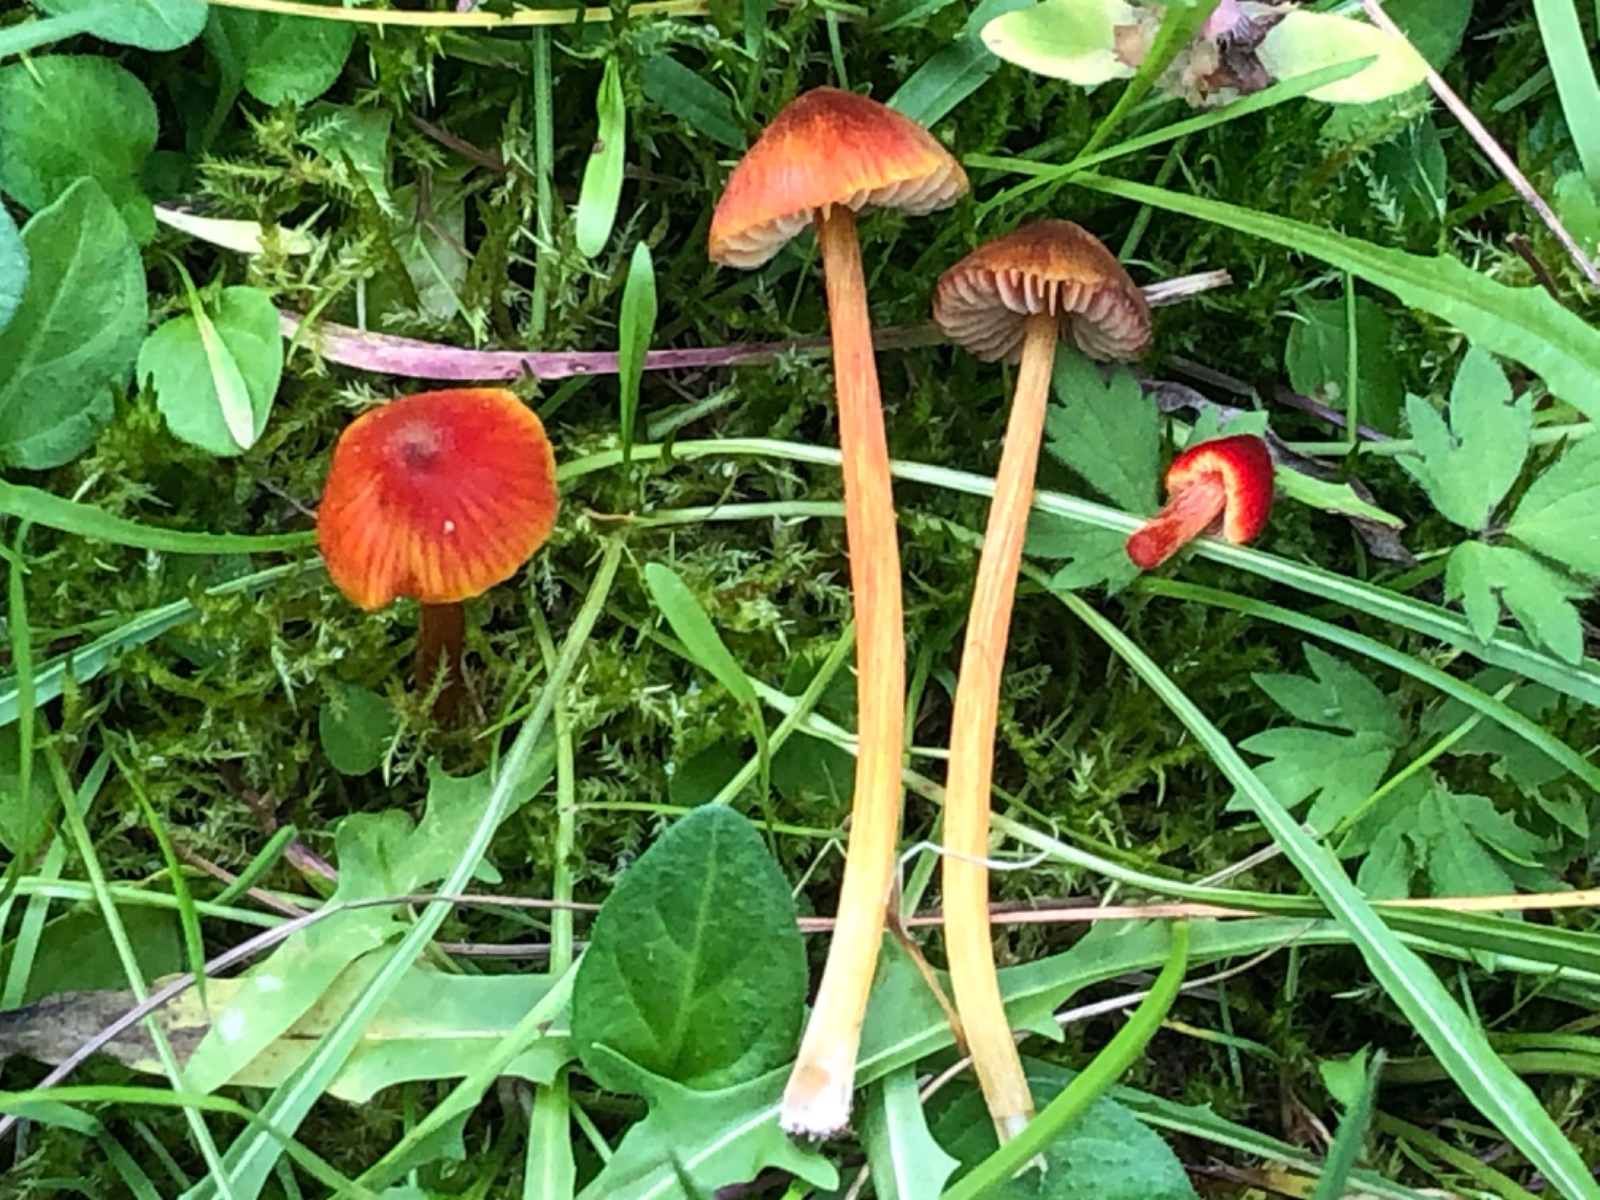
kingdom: Fungi
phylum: Basidiomycota
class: Agaricomycetes
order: Agaricales
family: Hygrophoraceae
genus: Hygrocybe
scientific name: Hygrocybe conica
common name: kegle-vokshat
